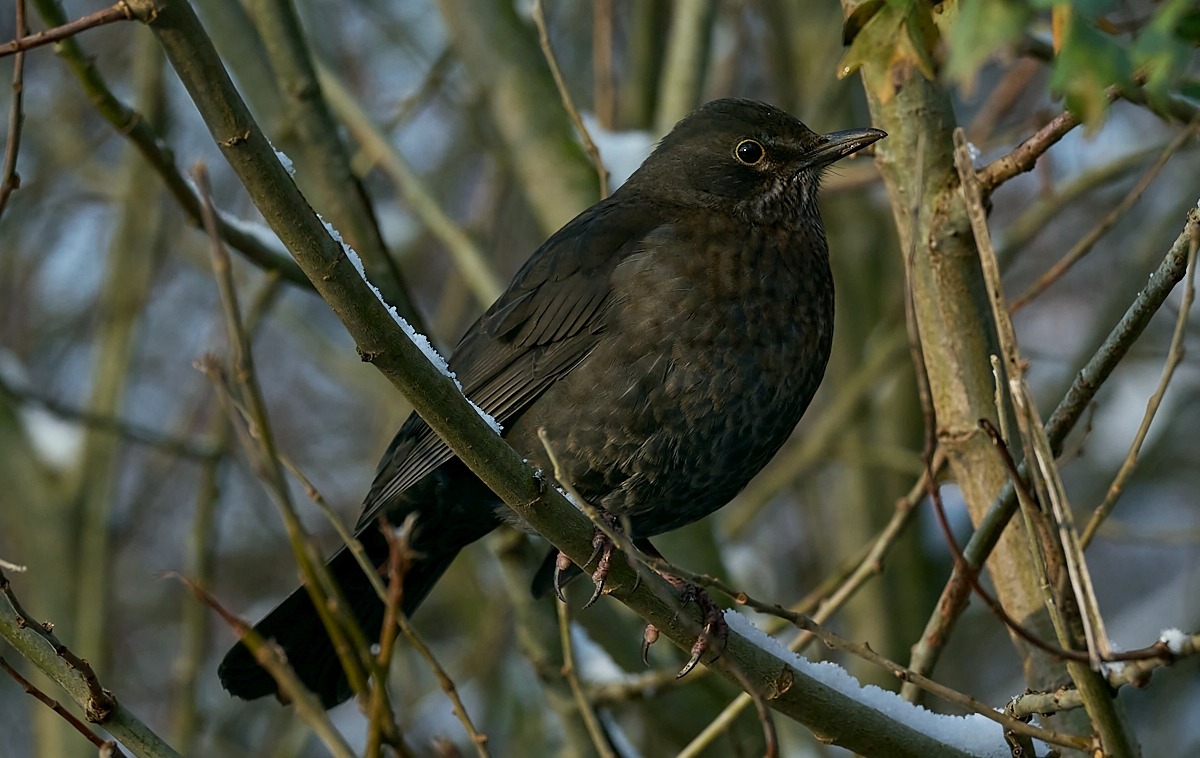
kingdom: Animalia
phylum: Chordata
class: Aves
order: Passeriformes
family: Turdidae
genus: Turdus
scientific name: Turdus merula
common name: Solsort
